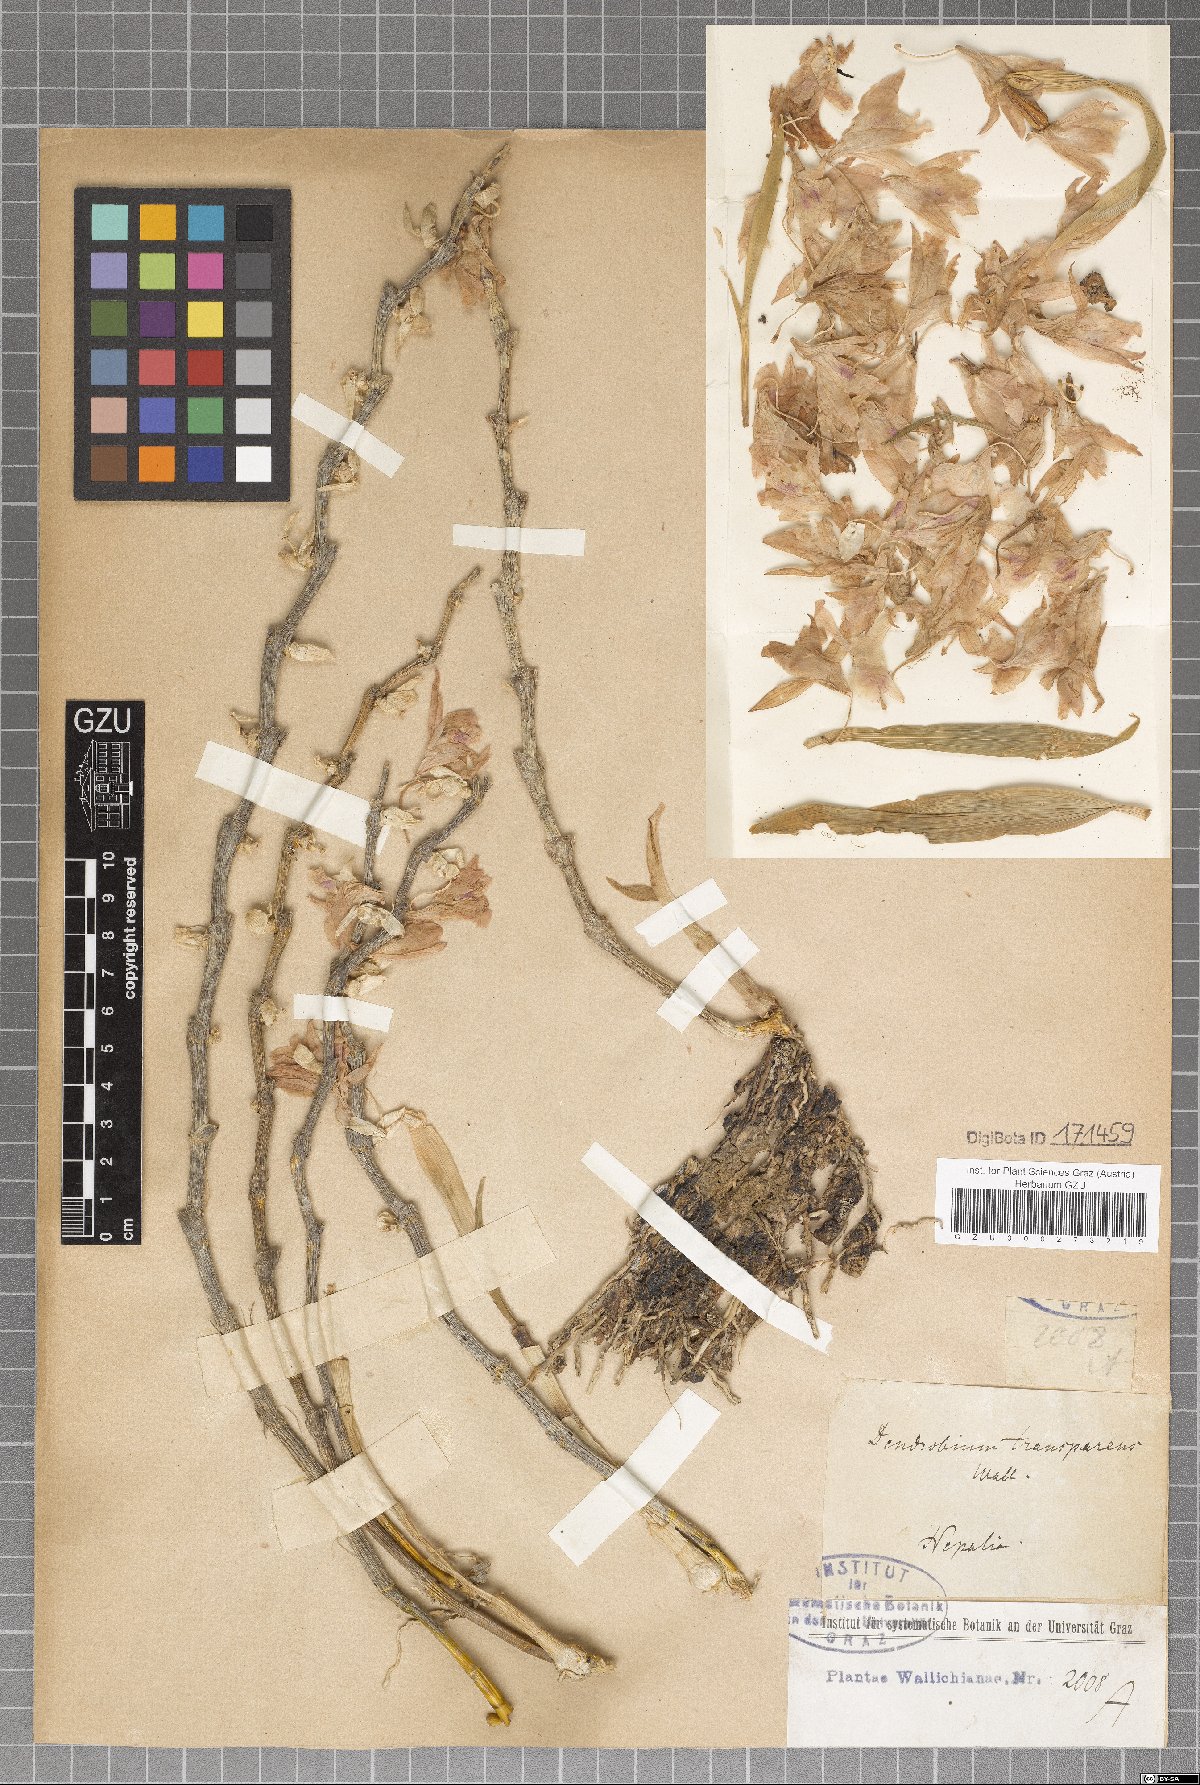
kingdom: Plantae
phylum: Tracheophyta
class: Liliopsida
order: Asparagales
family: Orchidaceae
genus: Dendrobium
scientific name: Dendrobium transparens
